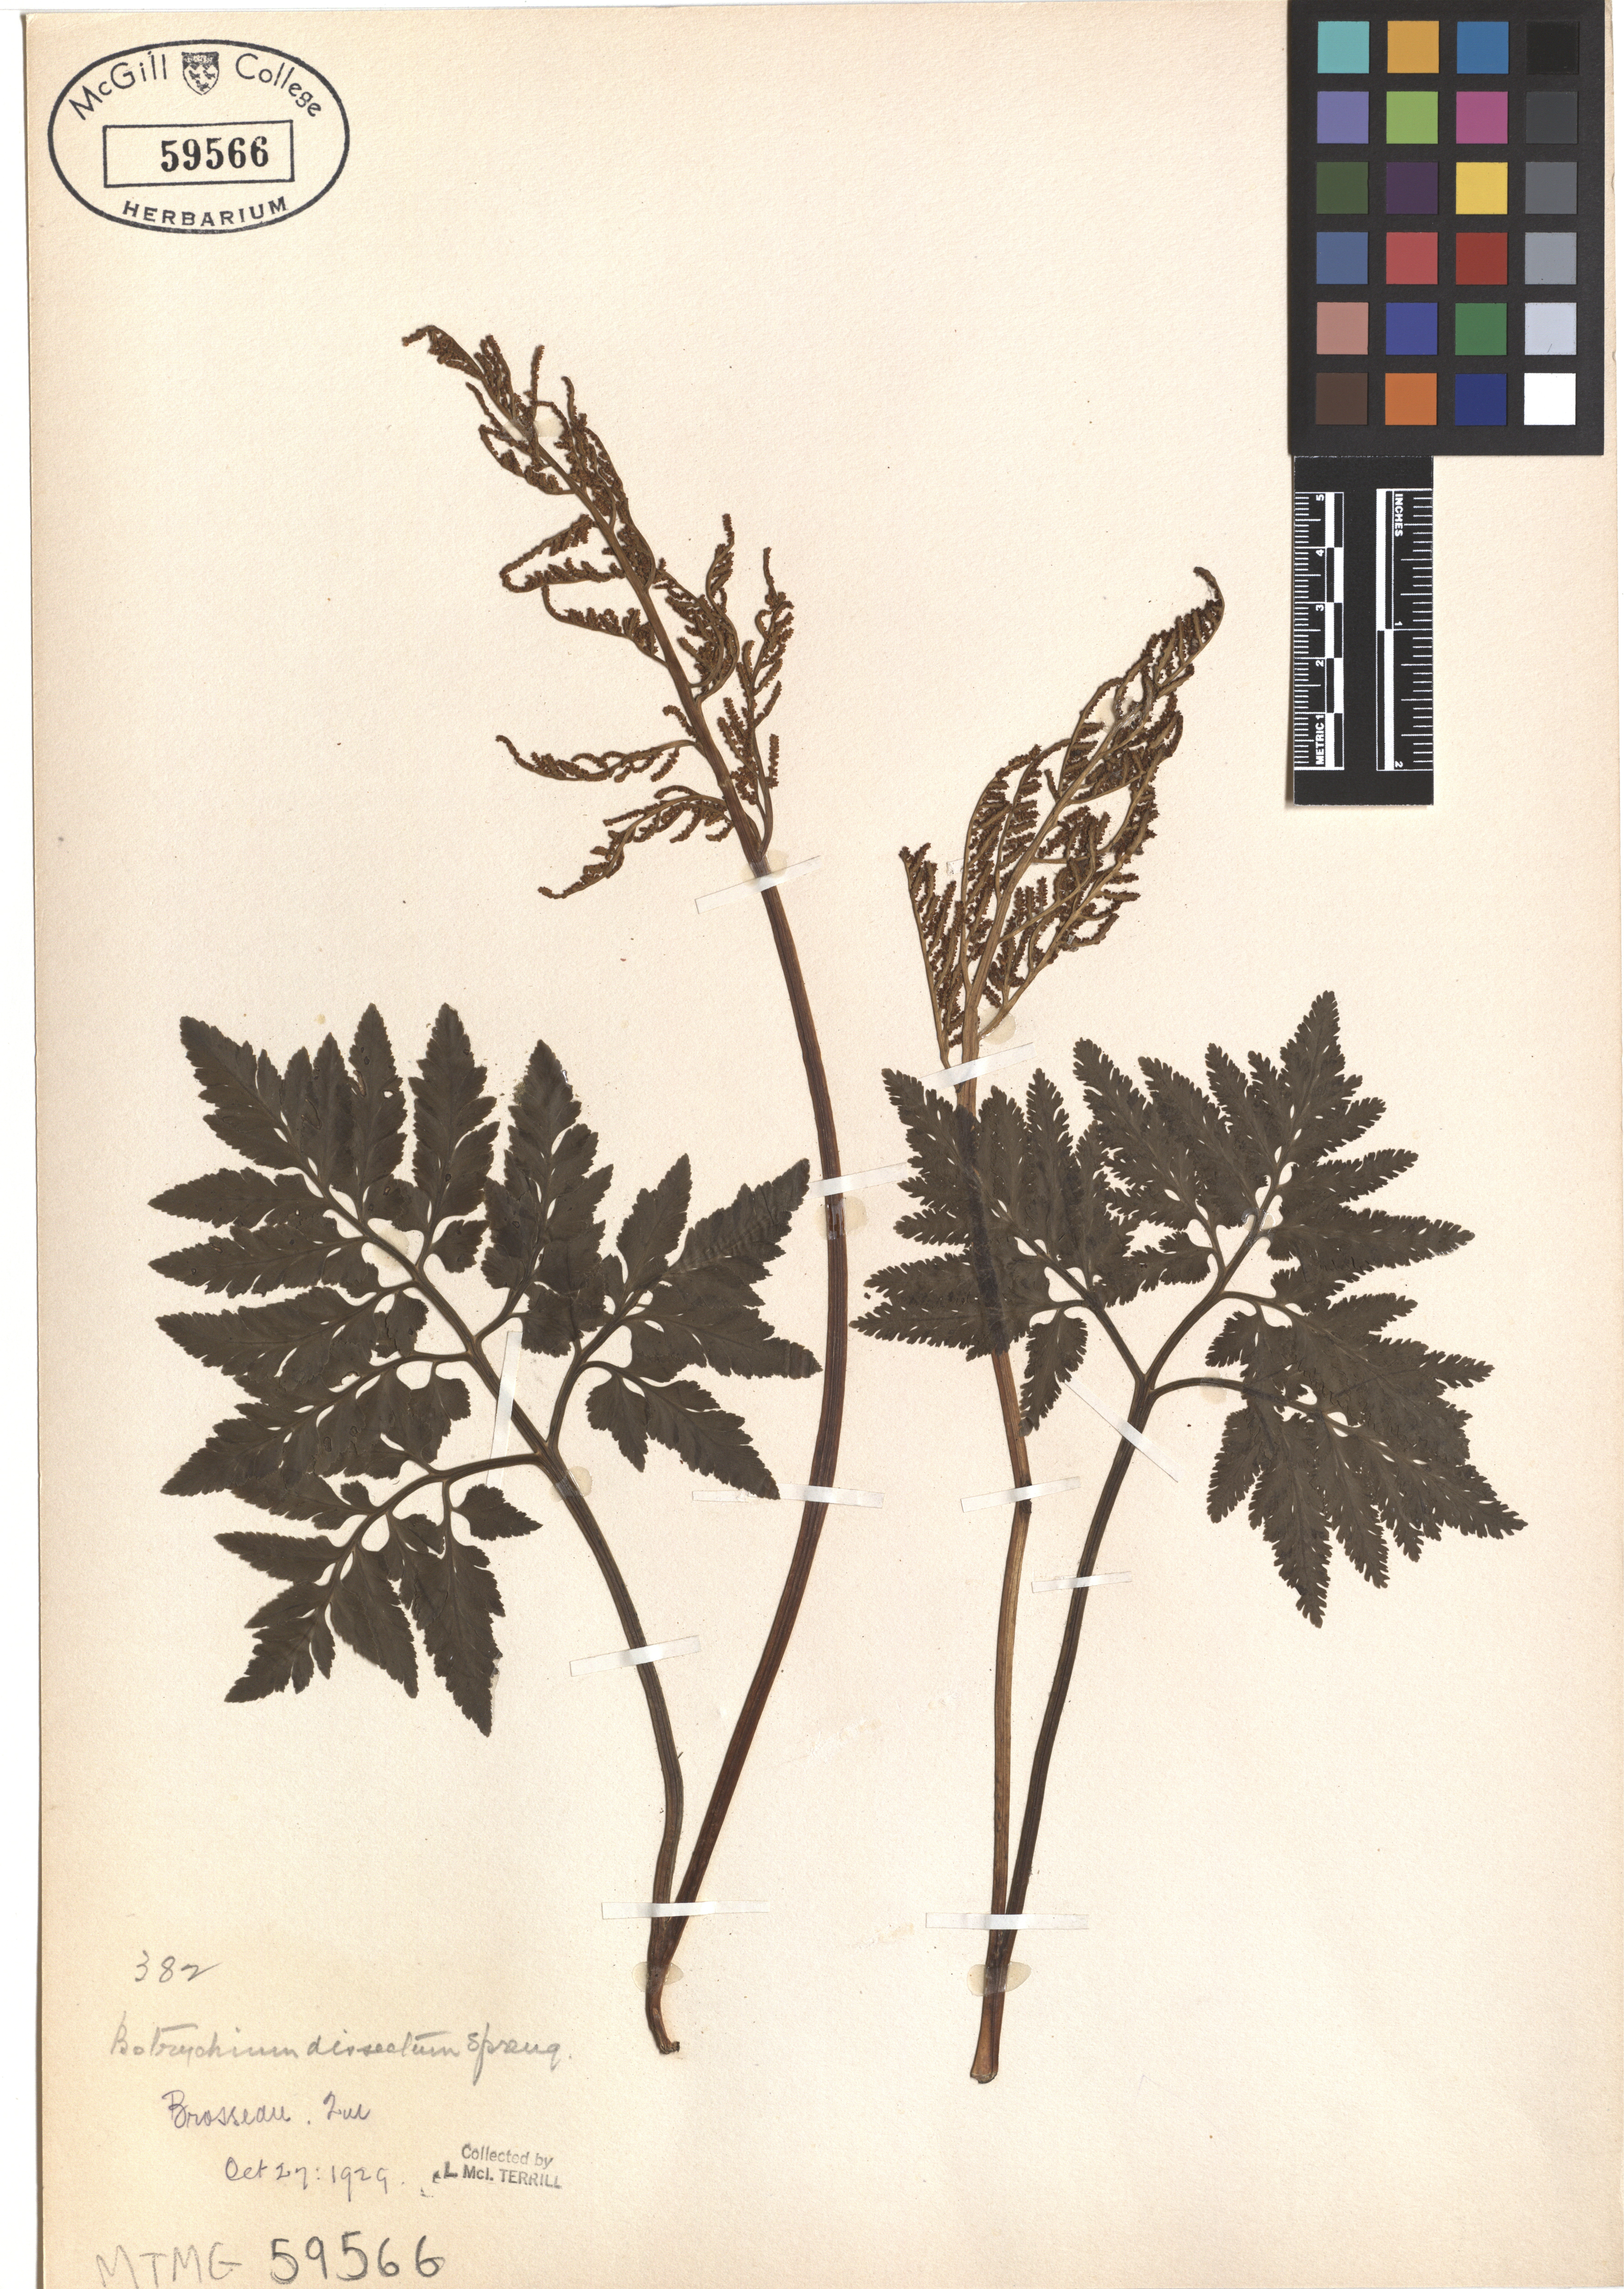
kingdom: Plantae
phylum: Tracheophyta
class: Polypodiopsida
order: Ophioglossales
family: Ophioglossaceae
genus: Sceptridium
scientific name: Sceptridium dissectum
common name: Cut-leaved grapefern
